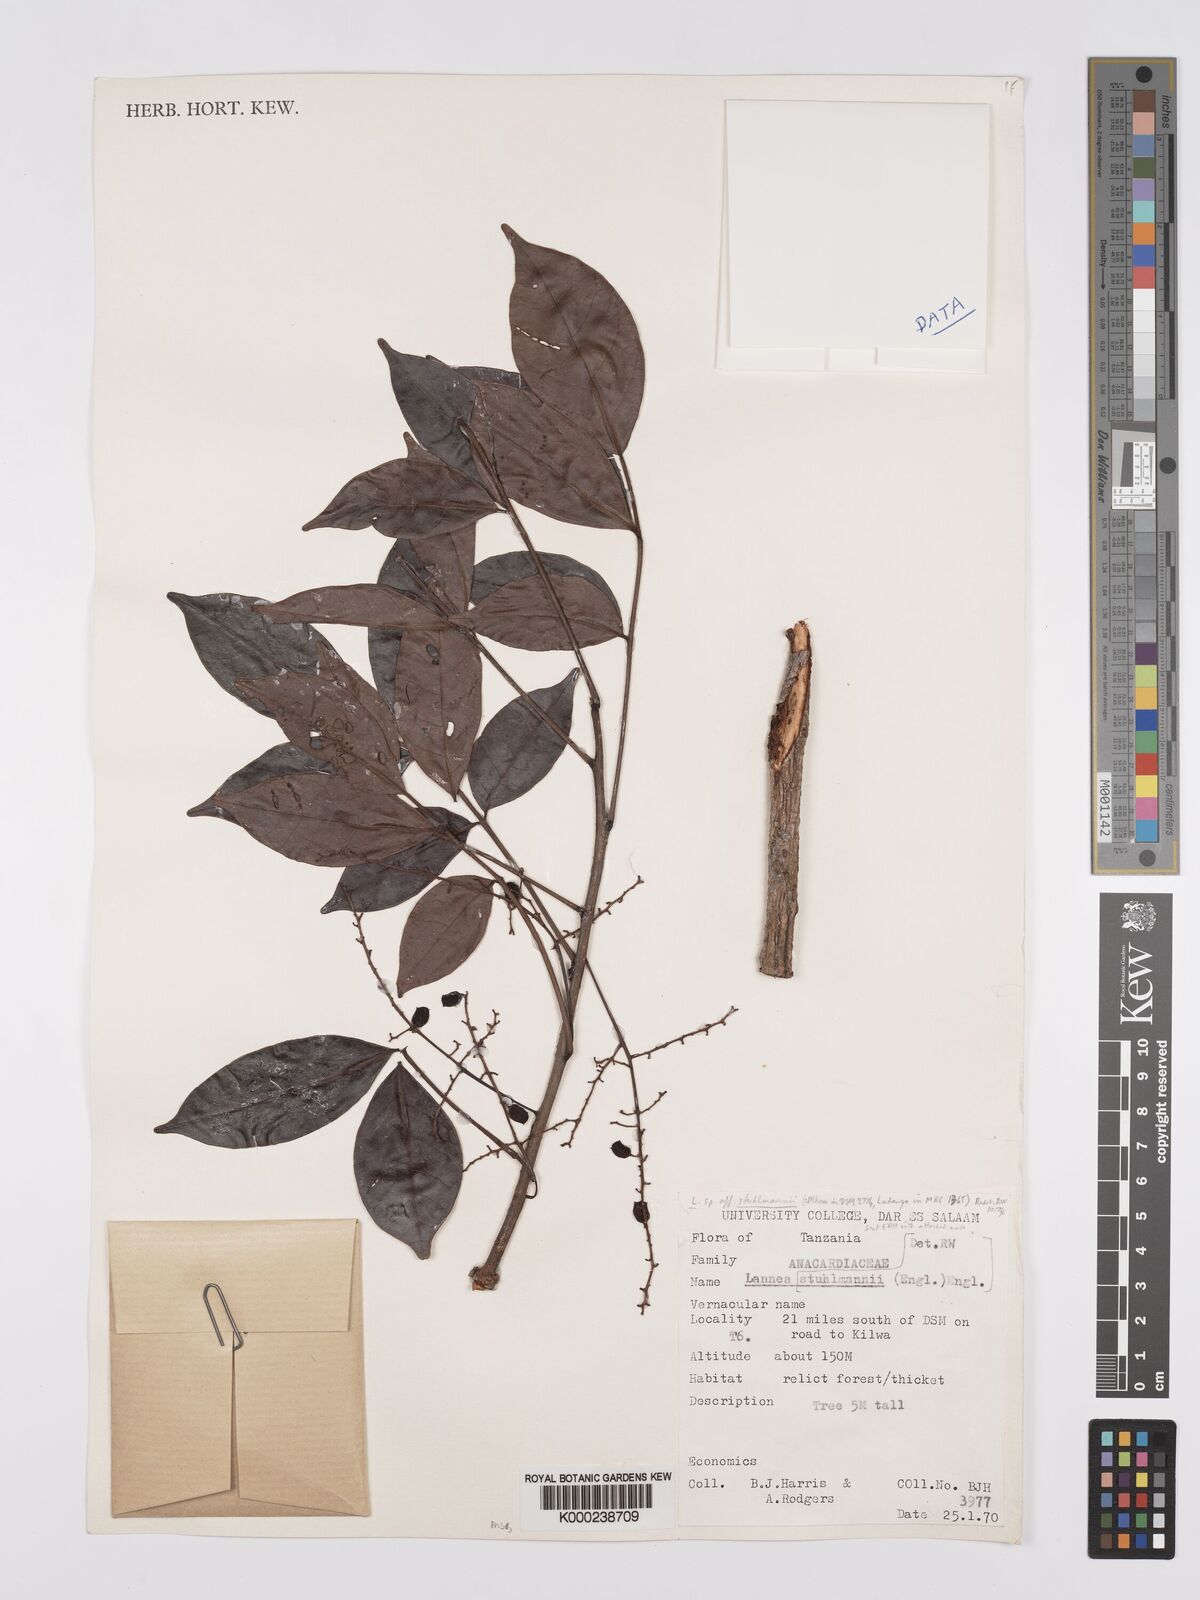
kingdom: Plantae
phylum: Tracheophyta
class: Magnoliopsida
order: Sapindales
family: Anacardiaceae
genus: Lannea
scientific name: Lannea schweinfurthii
